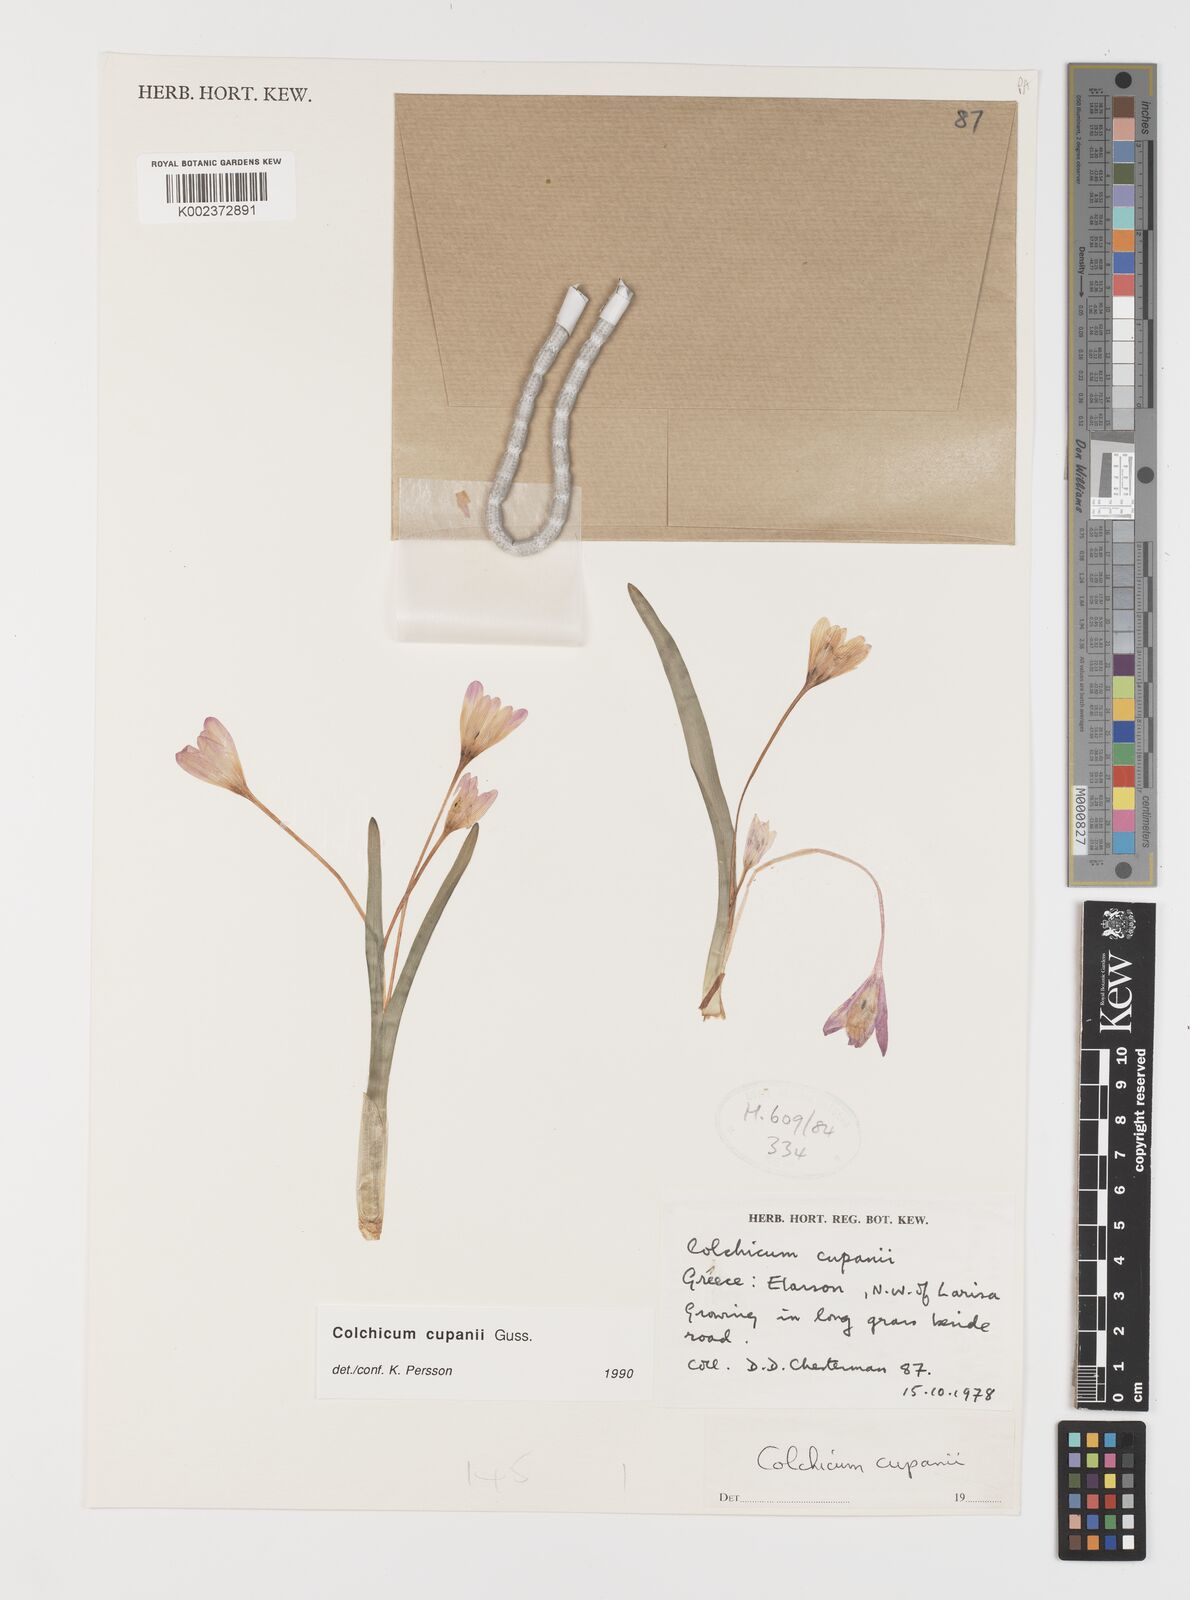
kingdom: Plantae
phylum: Tracheophyta
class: Liliopsida
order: Liliales
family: Colchicaceae
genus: Colchicum
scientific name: Colchicum cupanii
